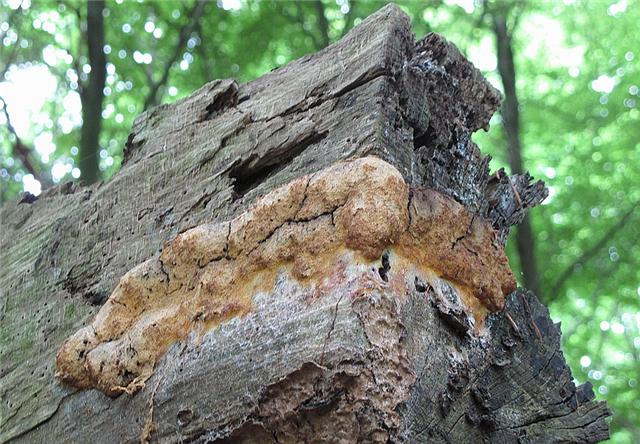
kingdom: Protozoa
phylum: Mycetozoa
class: Myxomycetes
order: Physarales
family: Physaraceae
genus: Fuligo
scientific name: Fuligo septica
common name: Dog vomit slime mold
